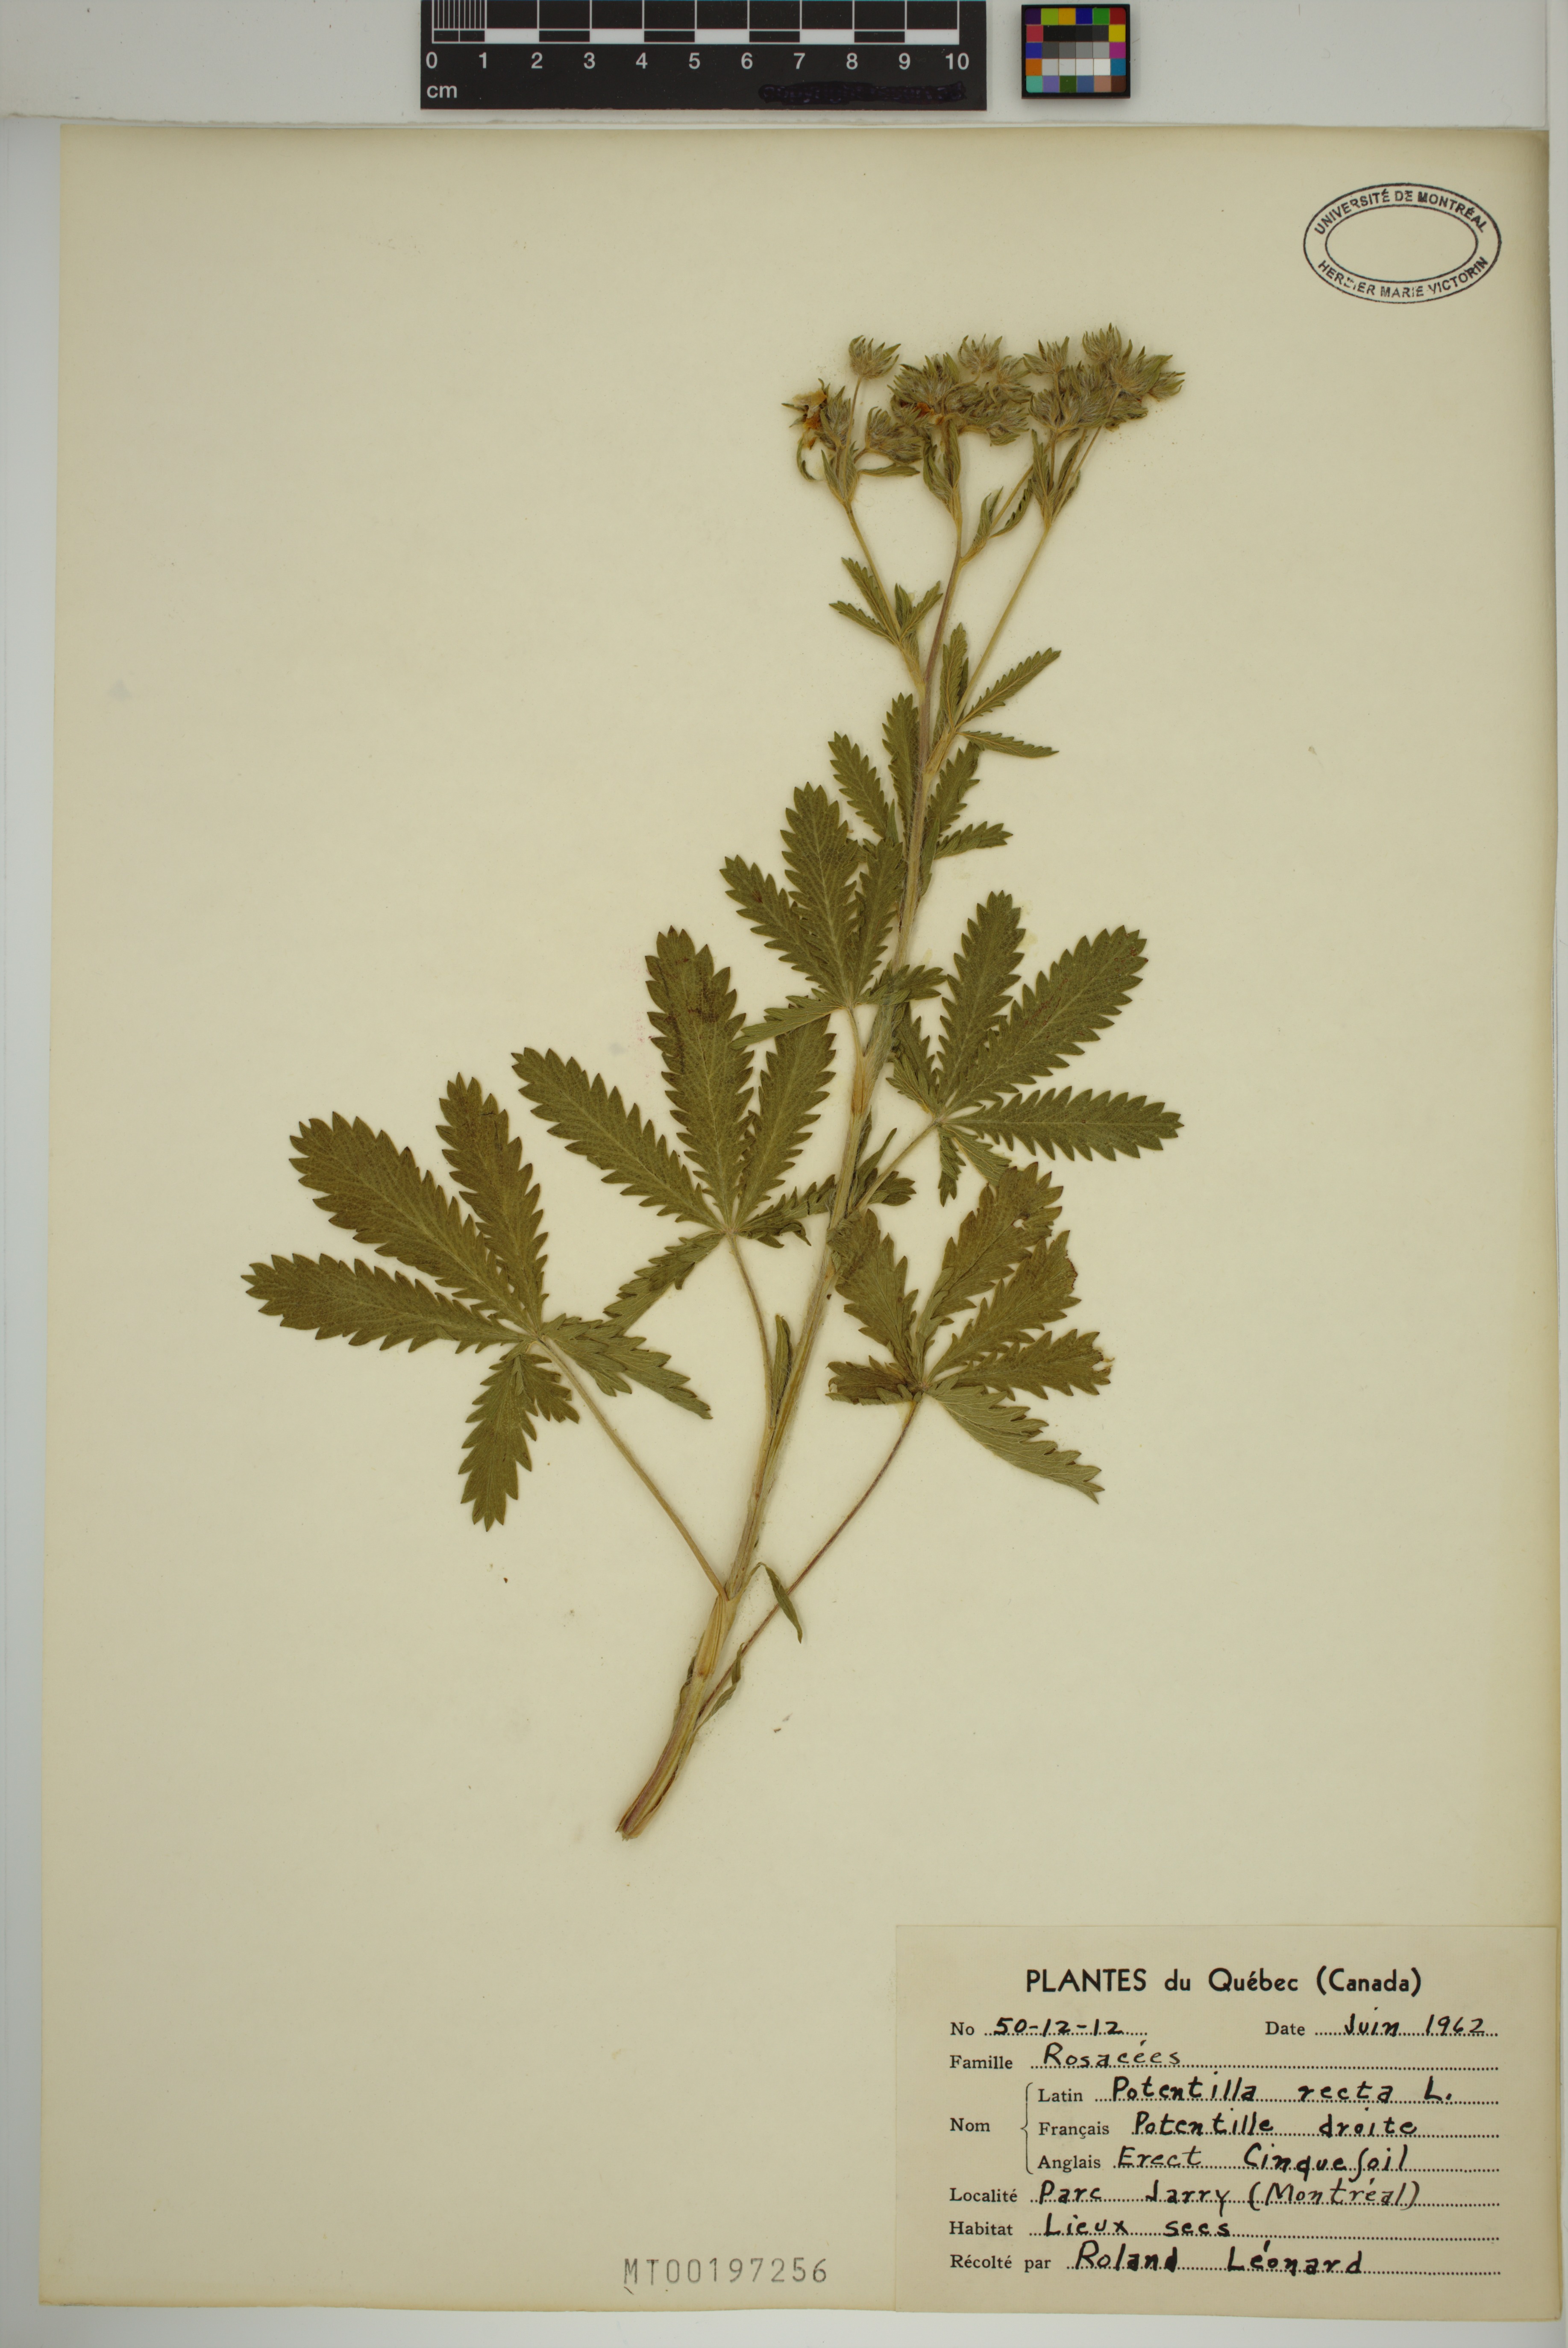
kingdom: Plantae
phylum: Tracheophyta
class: Magnoliopsida
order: Rosales
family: Rosaceae
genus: Potentilla
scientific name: Potentilla recta
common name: Sulphur cinquefoil
